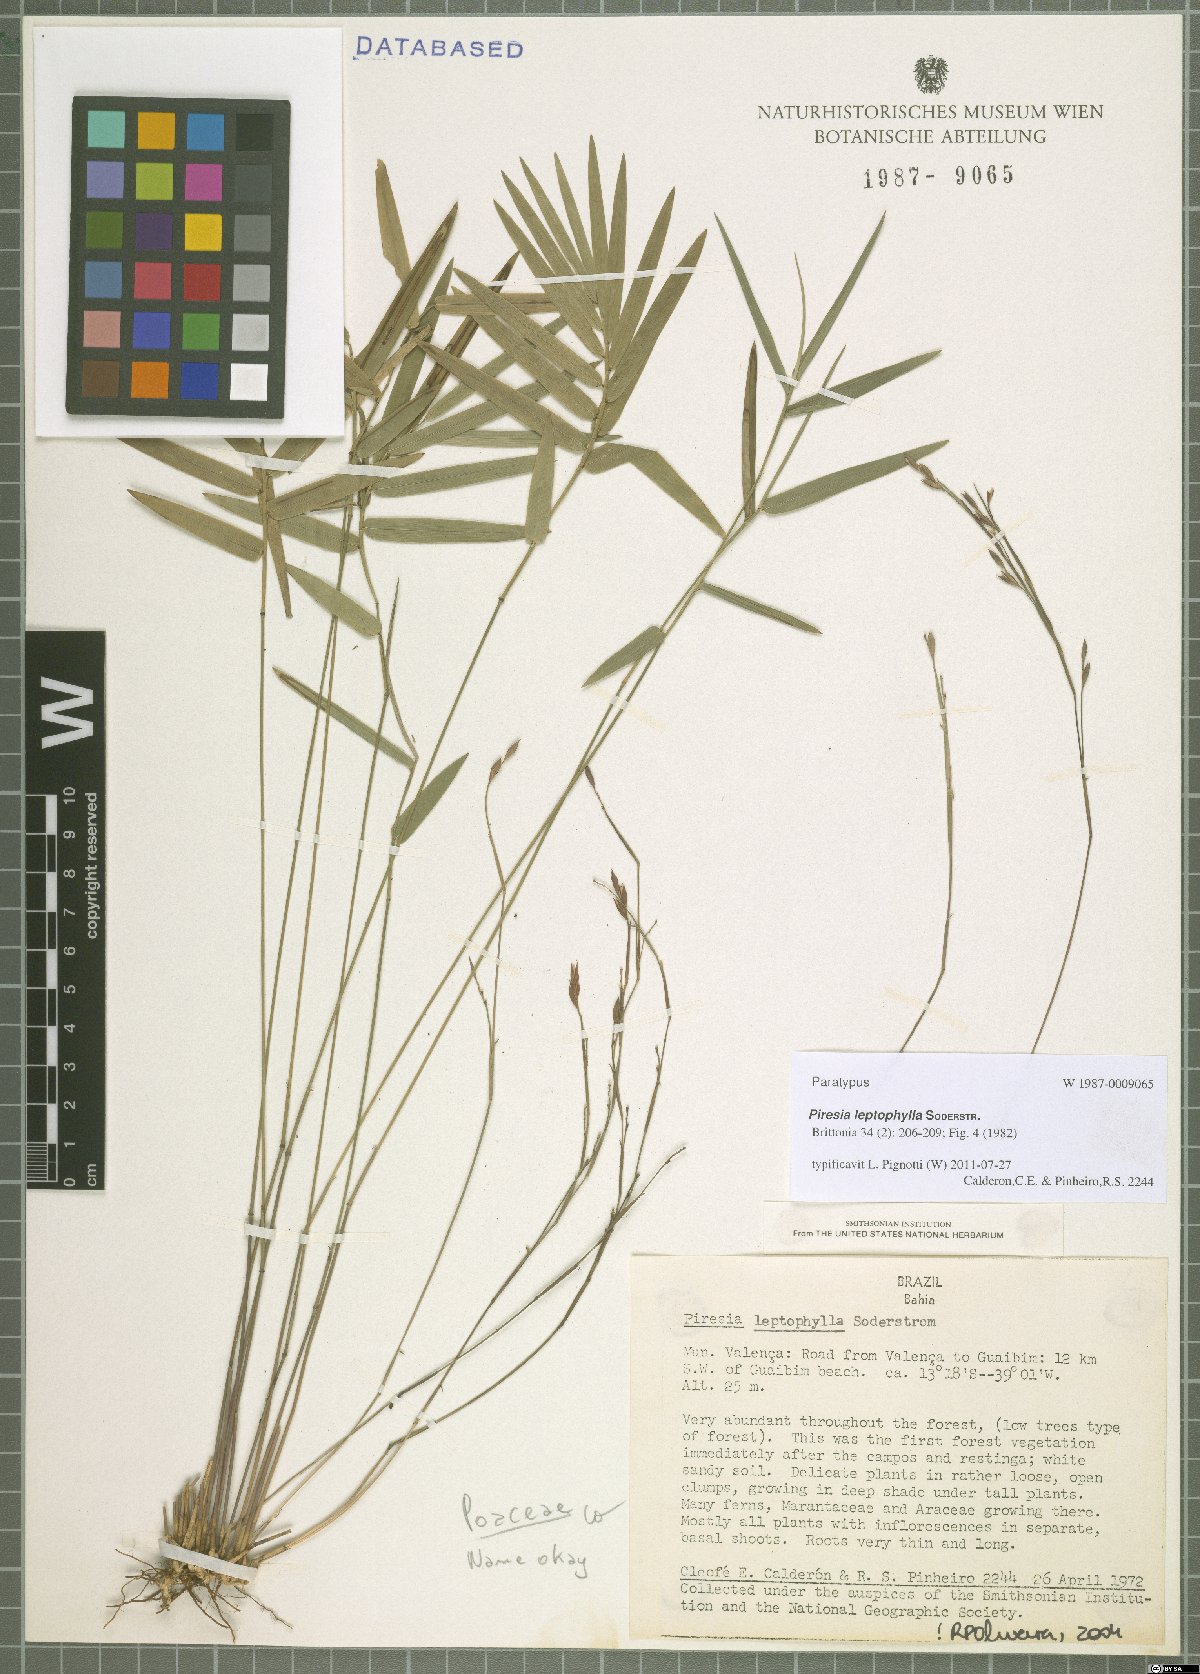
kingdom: Plantae
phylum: Tracheophyta
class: Liliopsida
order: Poales
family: Poaceae
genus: Piresia
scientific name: Piresia leptophylla
